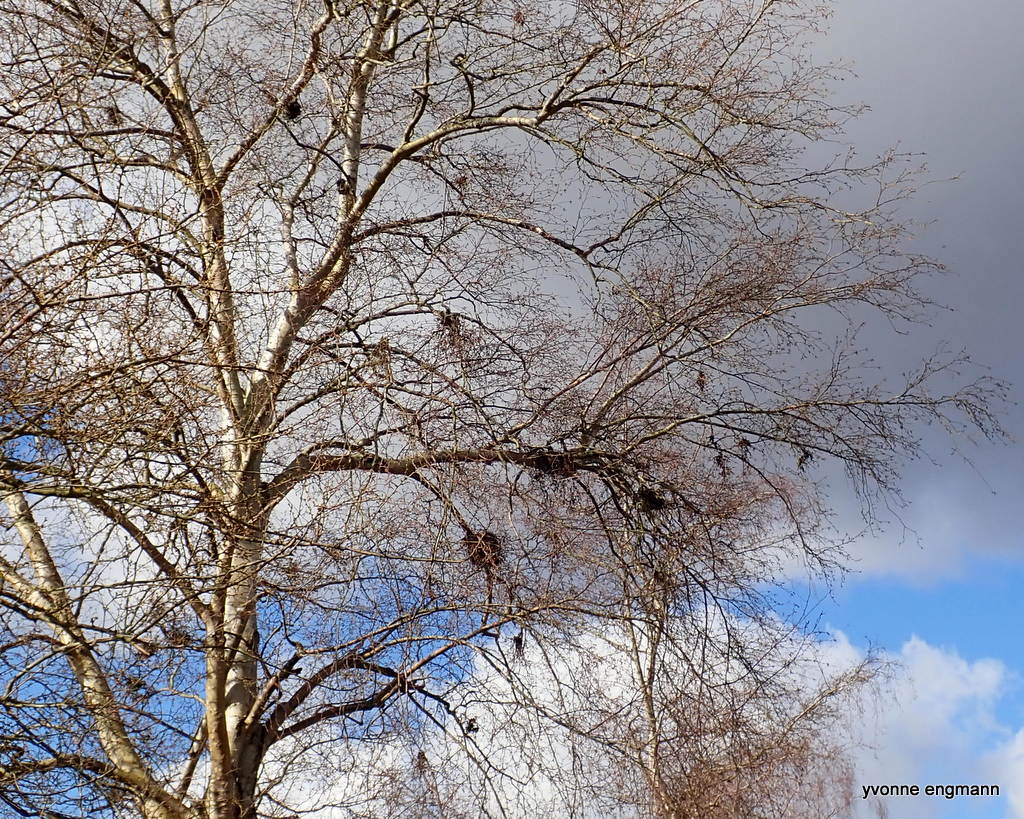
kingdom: Fungi
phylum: Ascomycota
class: Taphrinomycetes
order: Taphrinales
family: Taphrinaceae
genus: Taphrina
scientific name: Taphrina betulina
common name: hekse-sækdug
